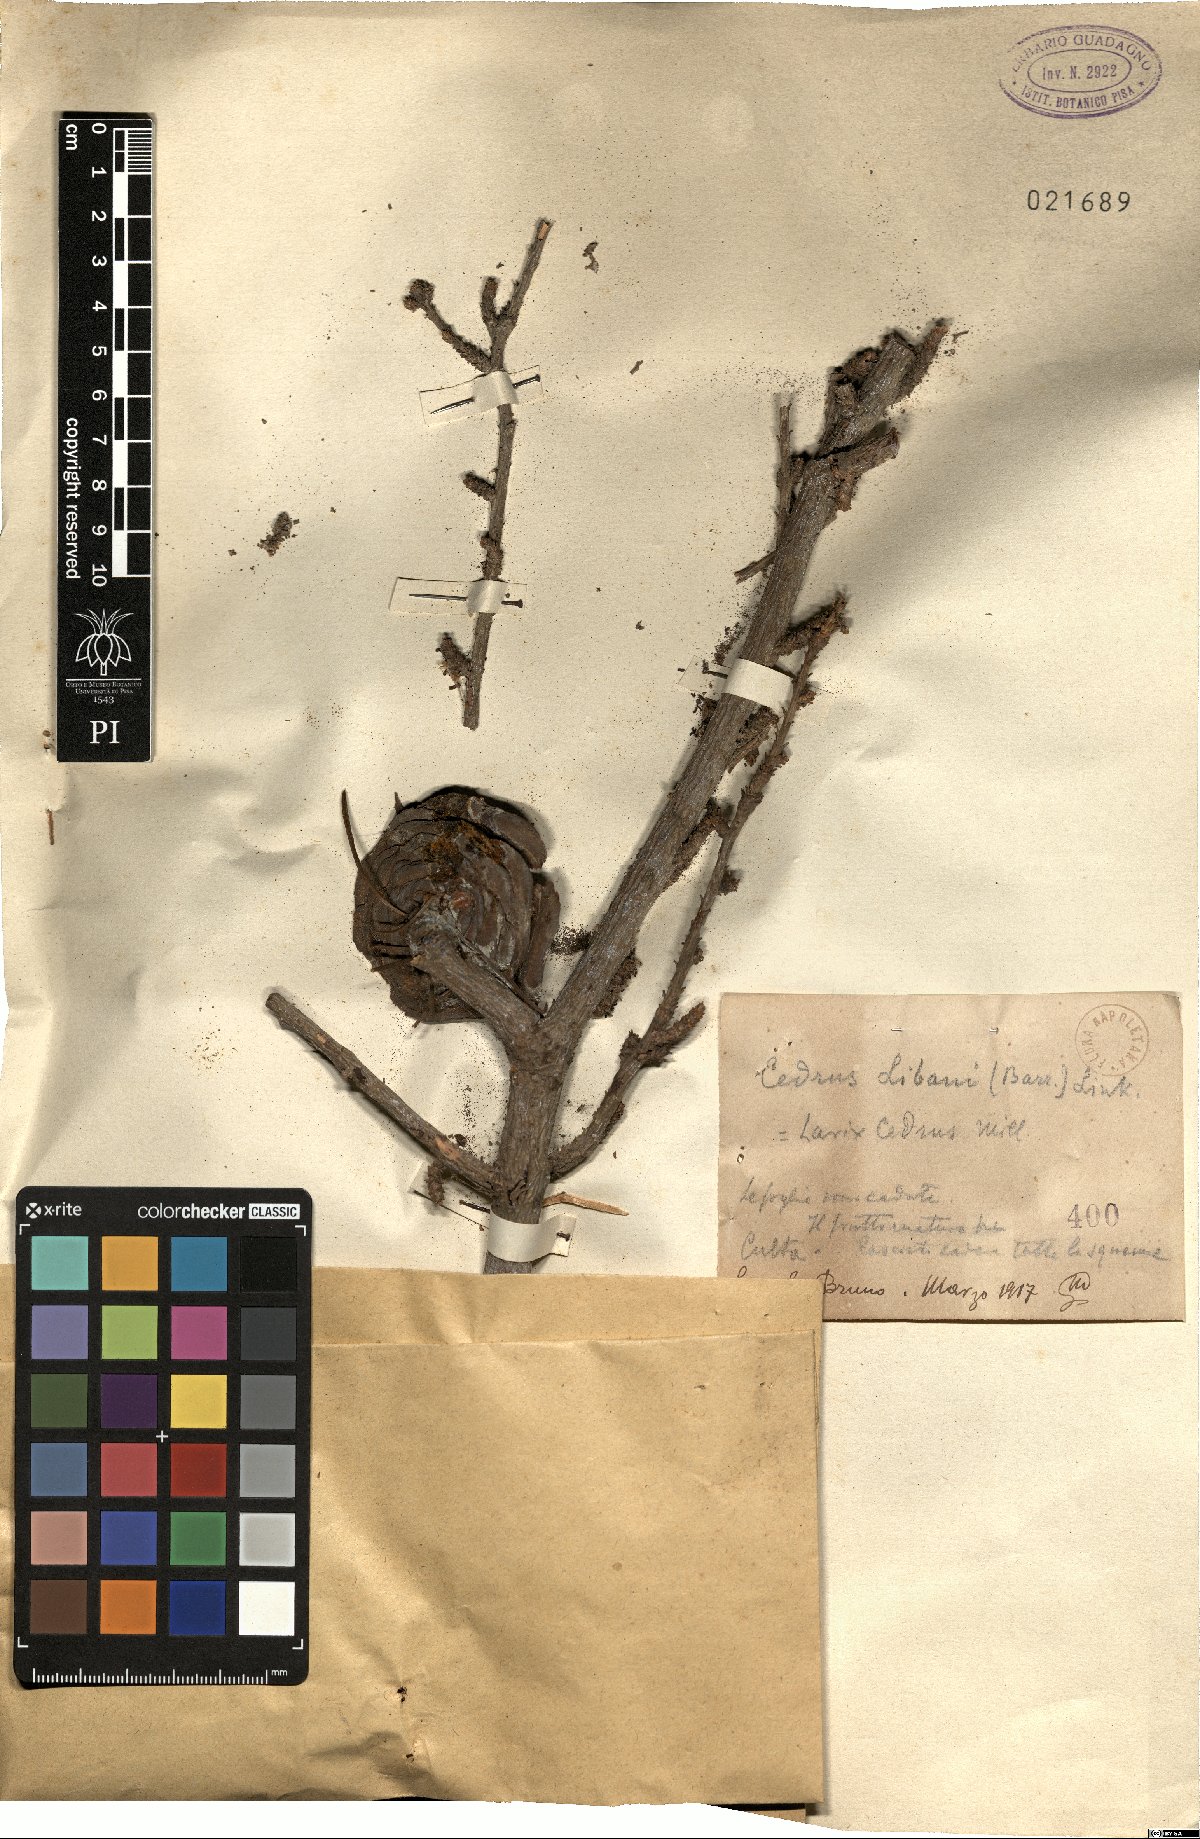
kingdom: Plantae
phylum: Tracheophyta
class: Pinopsida
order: Pinales
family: Pinaceae
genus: Cedrus
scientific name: Cedrus libani
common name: Cedar-of-lebanon
